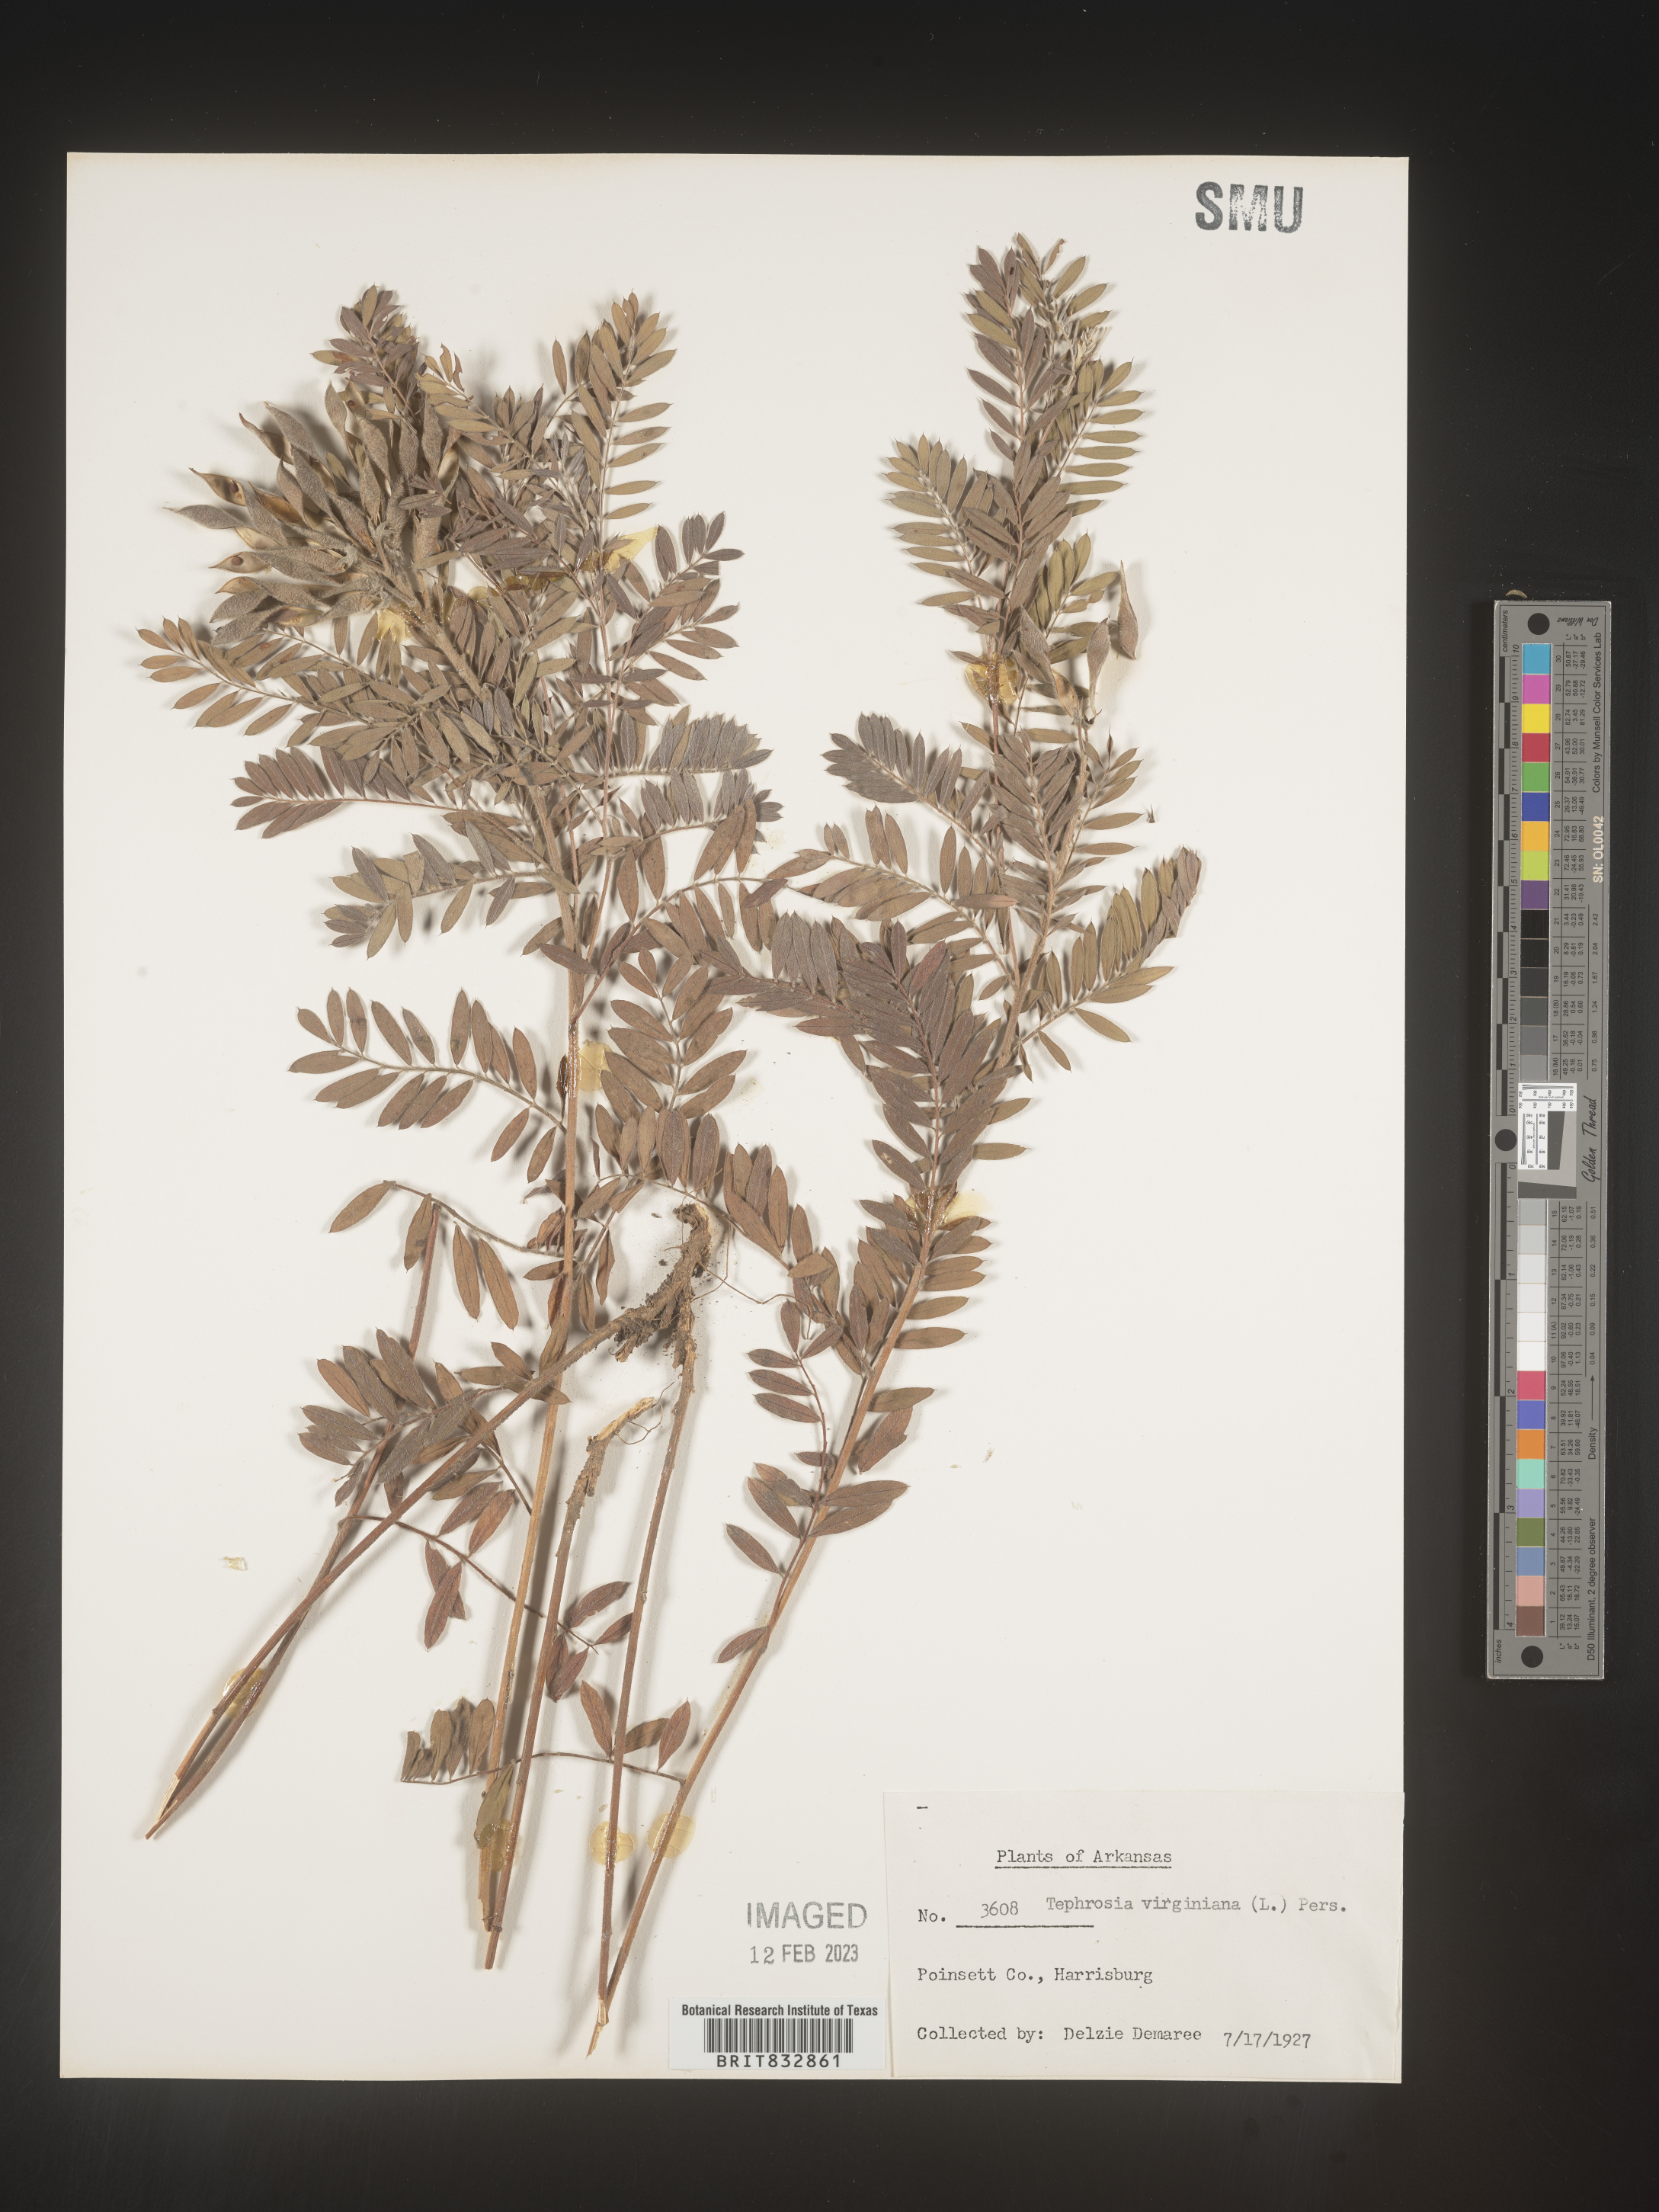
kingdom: Plantae
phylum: Tracheophyta
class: Magnoliopsida
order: Fabales
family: Fabaceae
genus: Tephrosia
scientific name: Tephrosia virginiana
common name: Rabbit-pea
